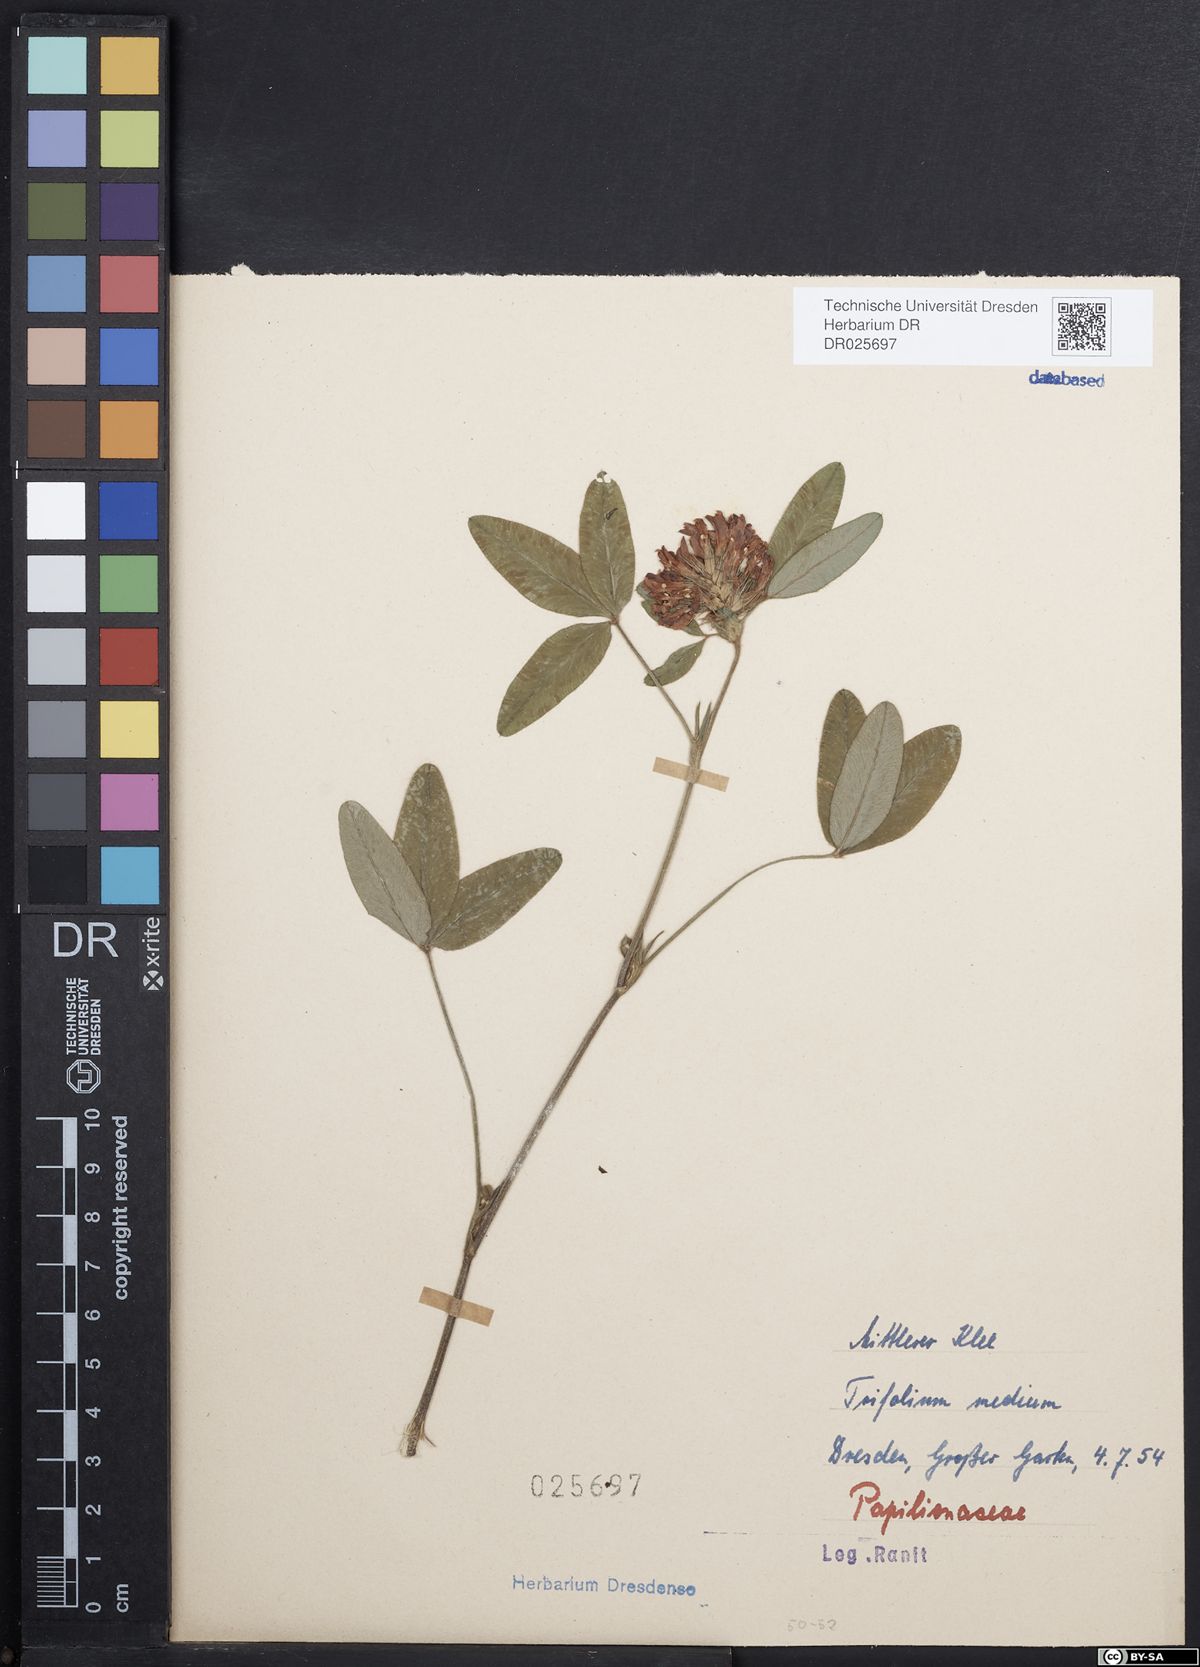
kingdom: Plantae
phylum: Tracheophyta
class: Magnoliopsida
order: Fabales
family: Fabaceae
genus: Trifolium
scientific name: Trifolium medium
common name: Zigzag clover
